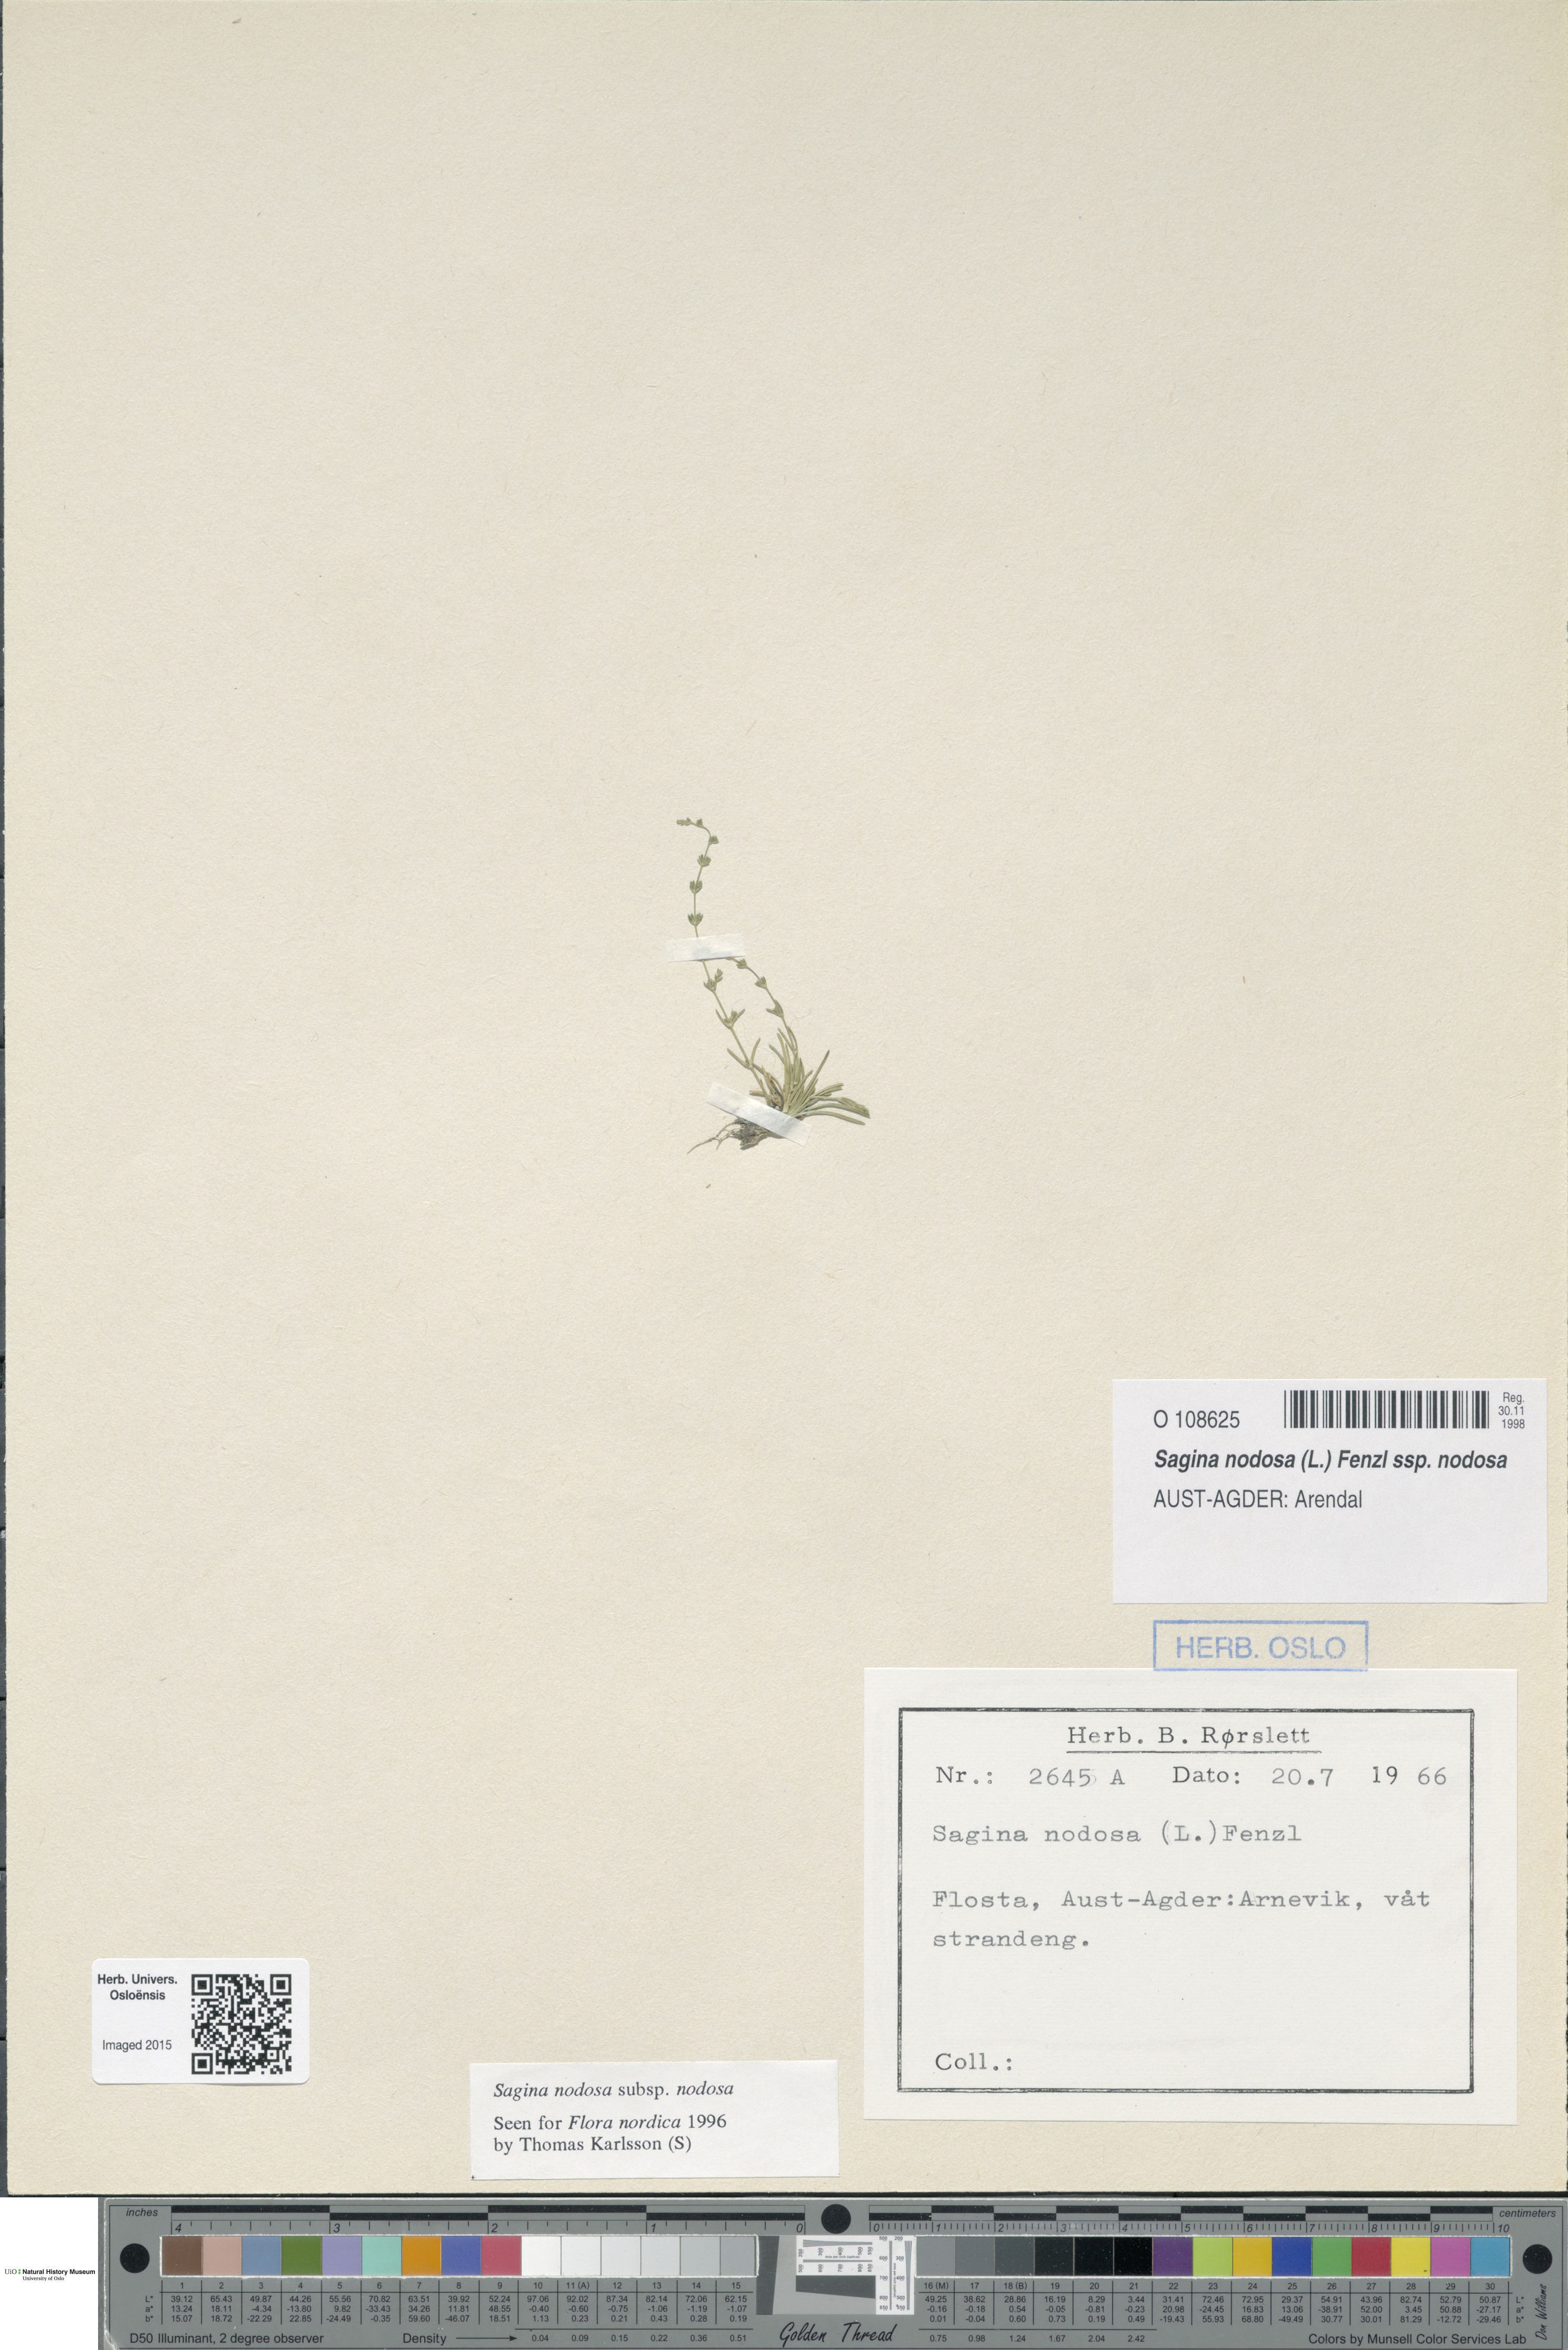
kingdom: Plantae
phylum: Tracheophyta
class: Magnoliopsida
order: Caryophyllales
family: Caryophyllaceae
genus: Sagina
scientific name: Sagina nodosa
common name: Knotted pearlwort
